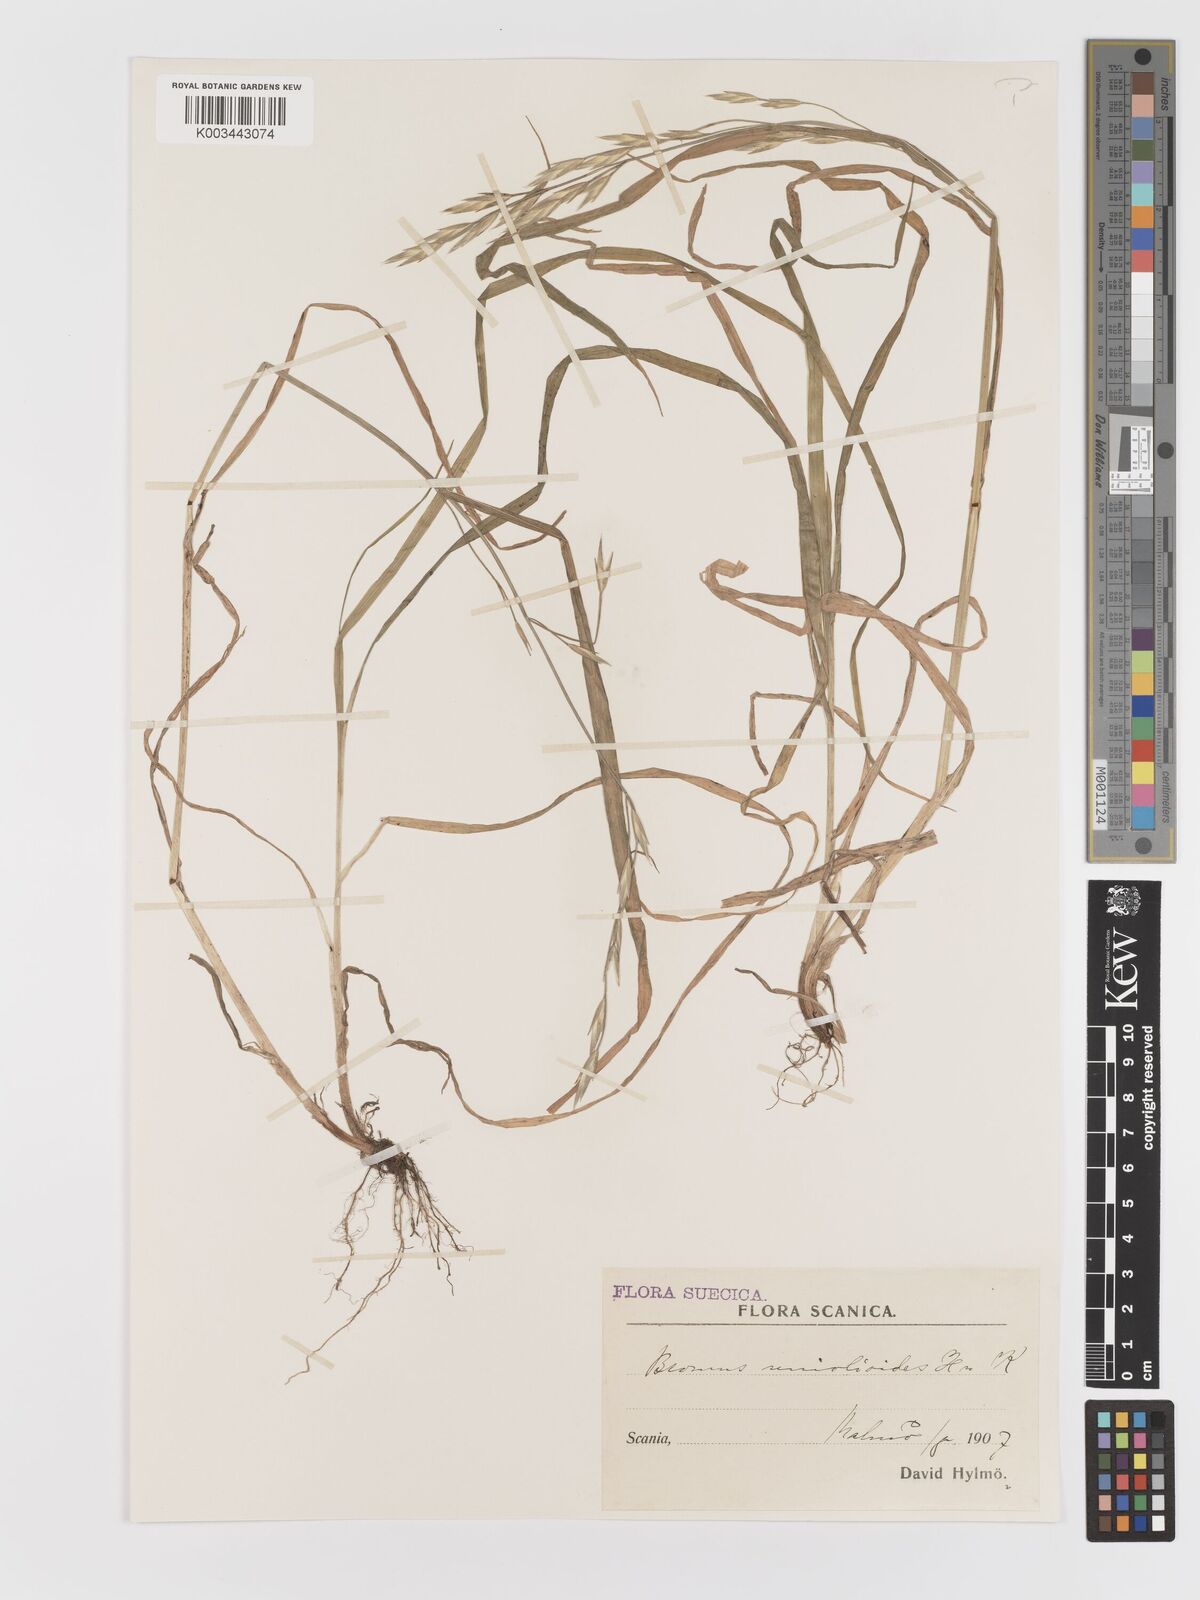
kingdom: Plantae
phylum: Tracheophyta
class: Liliopsida
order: Poales
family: Poaceae
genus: Bromus
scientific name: Bromus catharticus
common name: Rescuegrass
